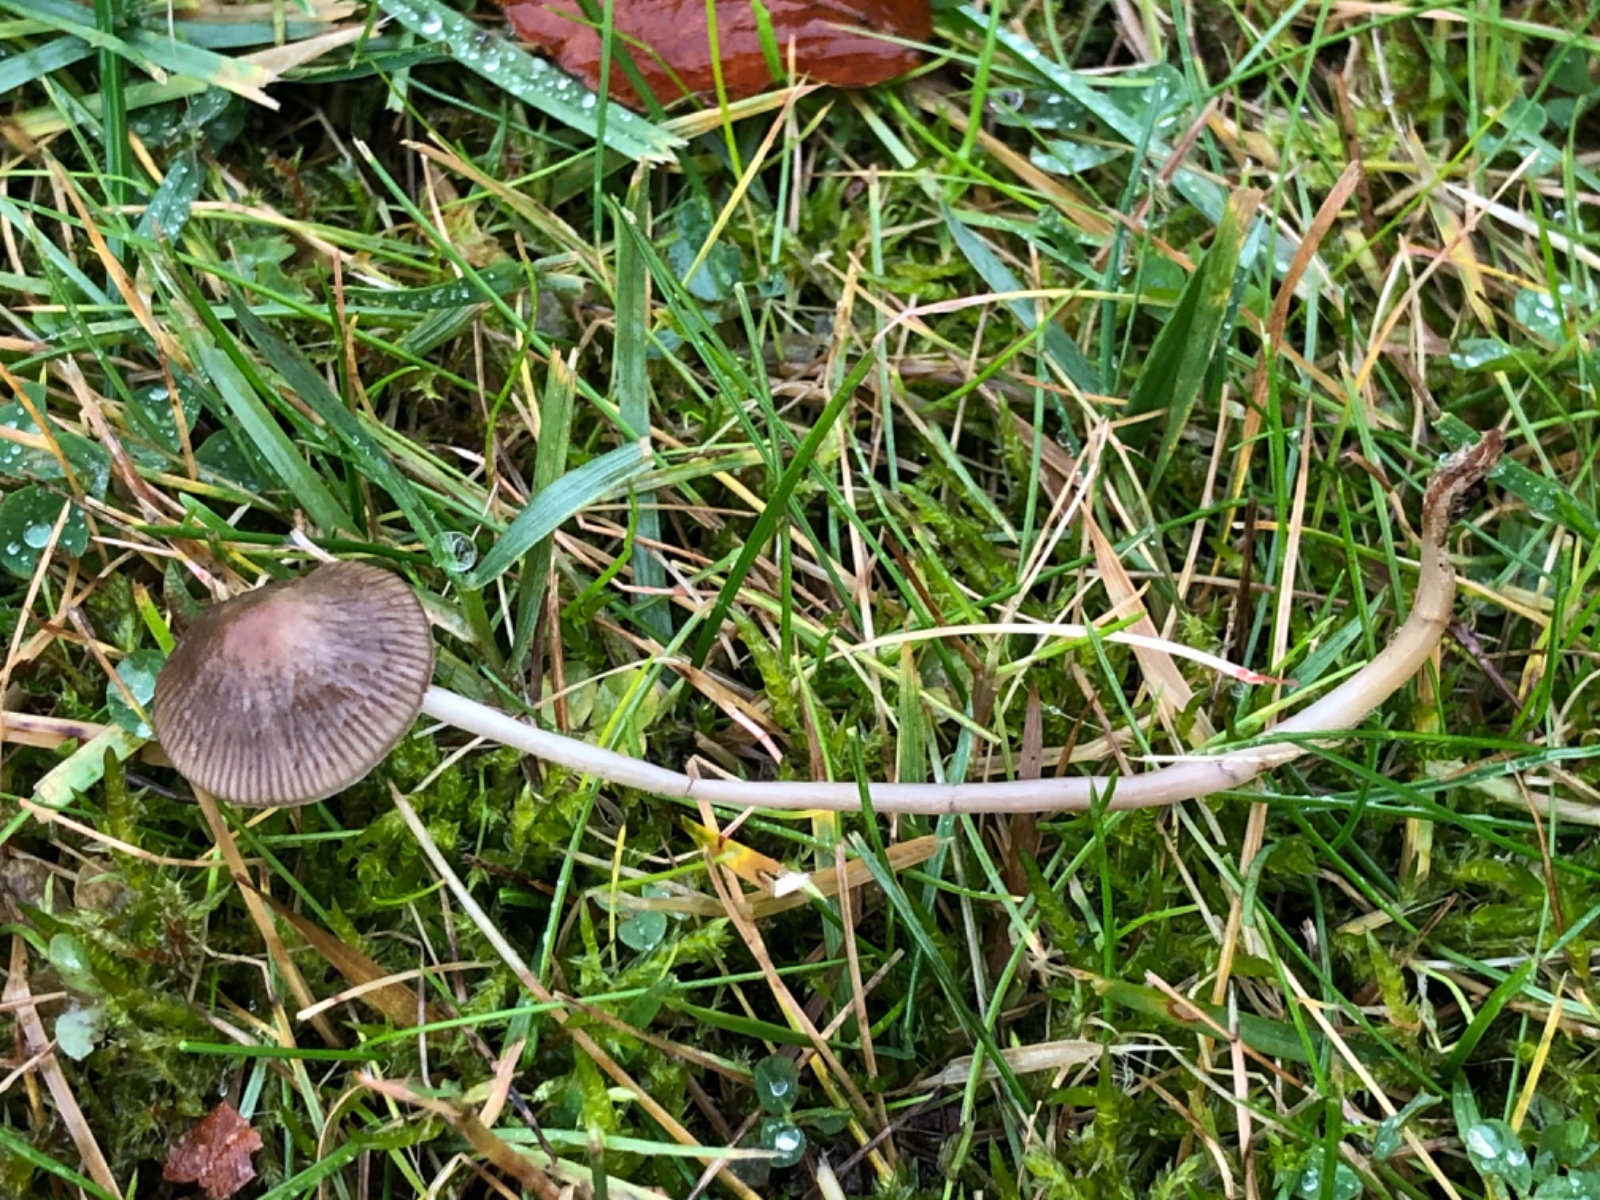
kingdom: Fungi
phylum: Basidiomycota
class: Agaricomycetes
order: Agaricales
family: Mycenaceae
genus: Mycena
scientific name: Mycena
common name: huesvamp
